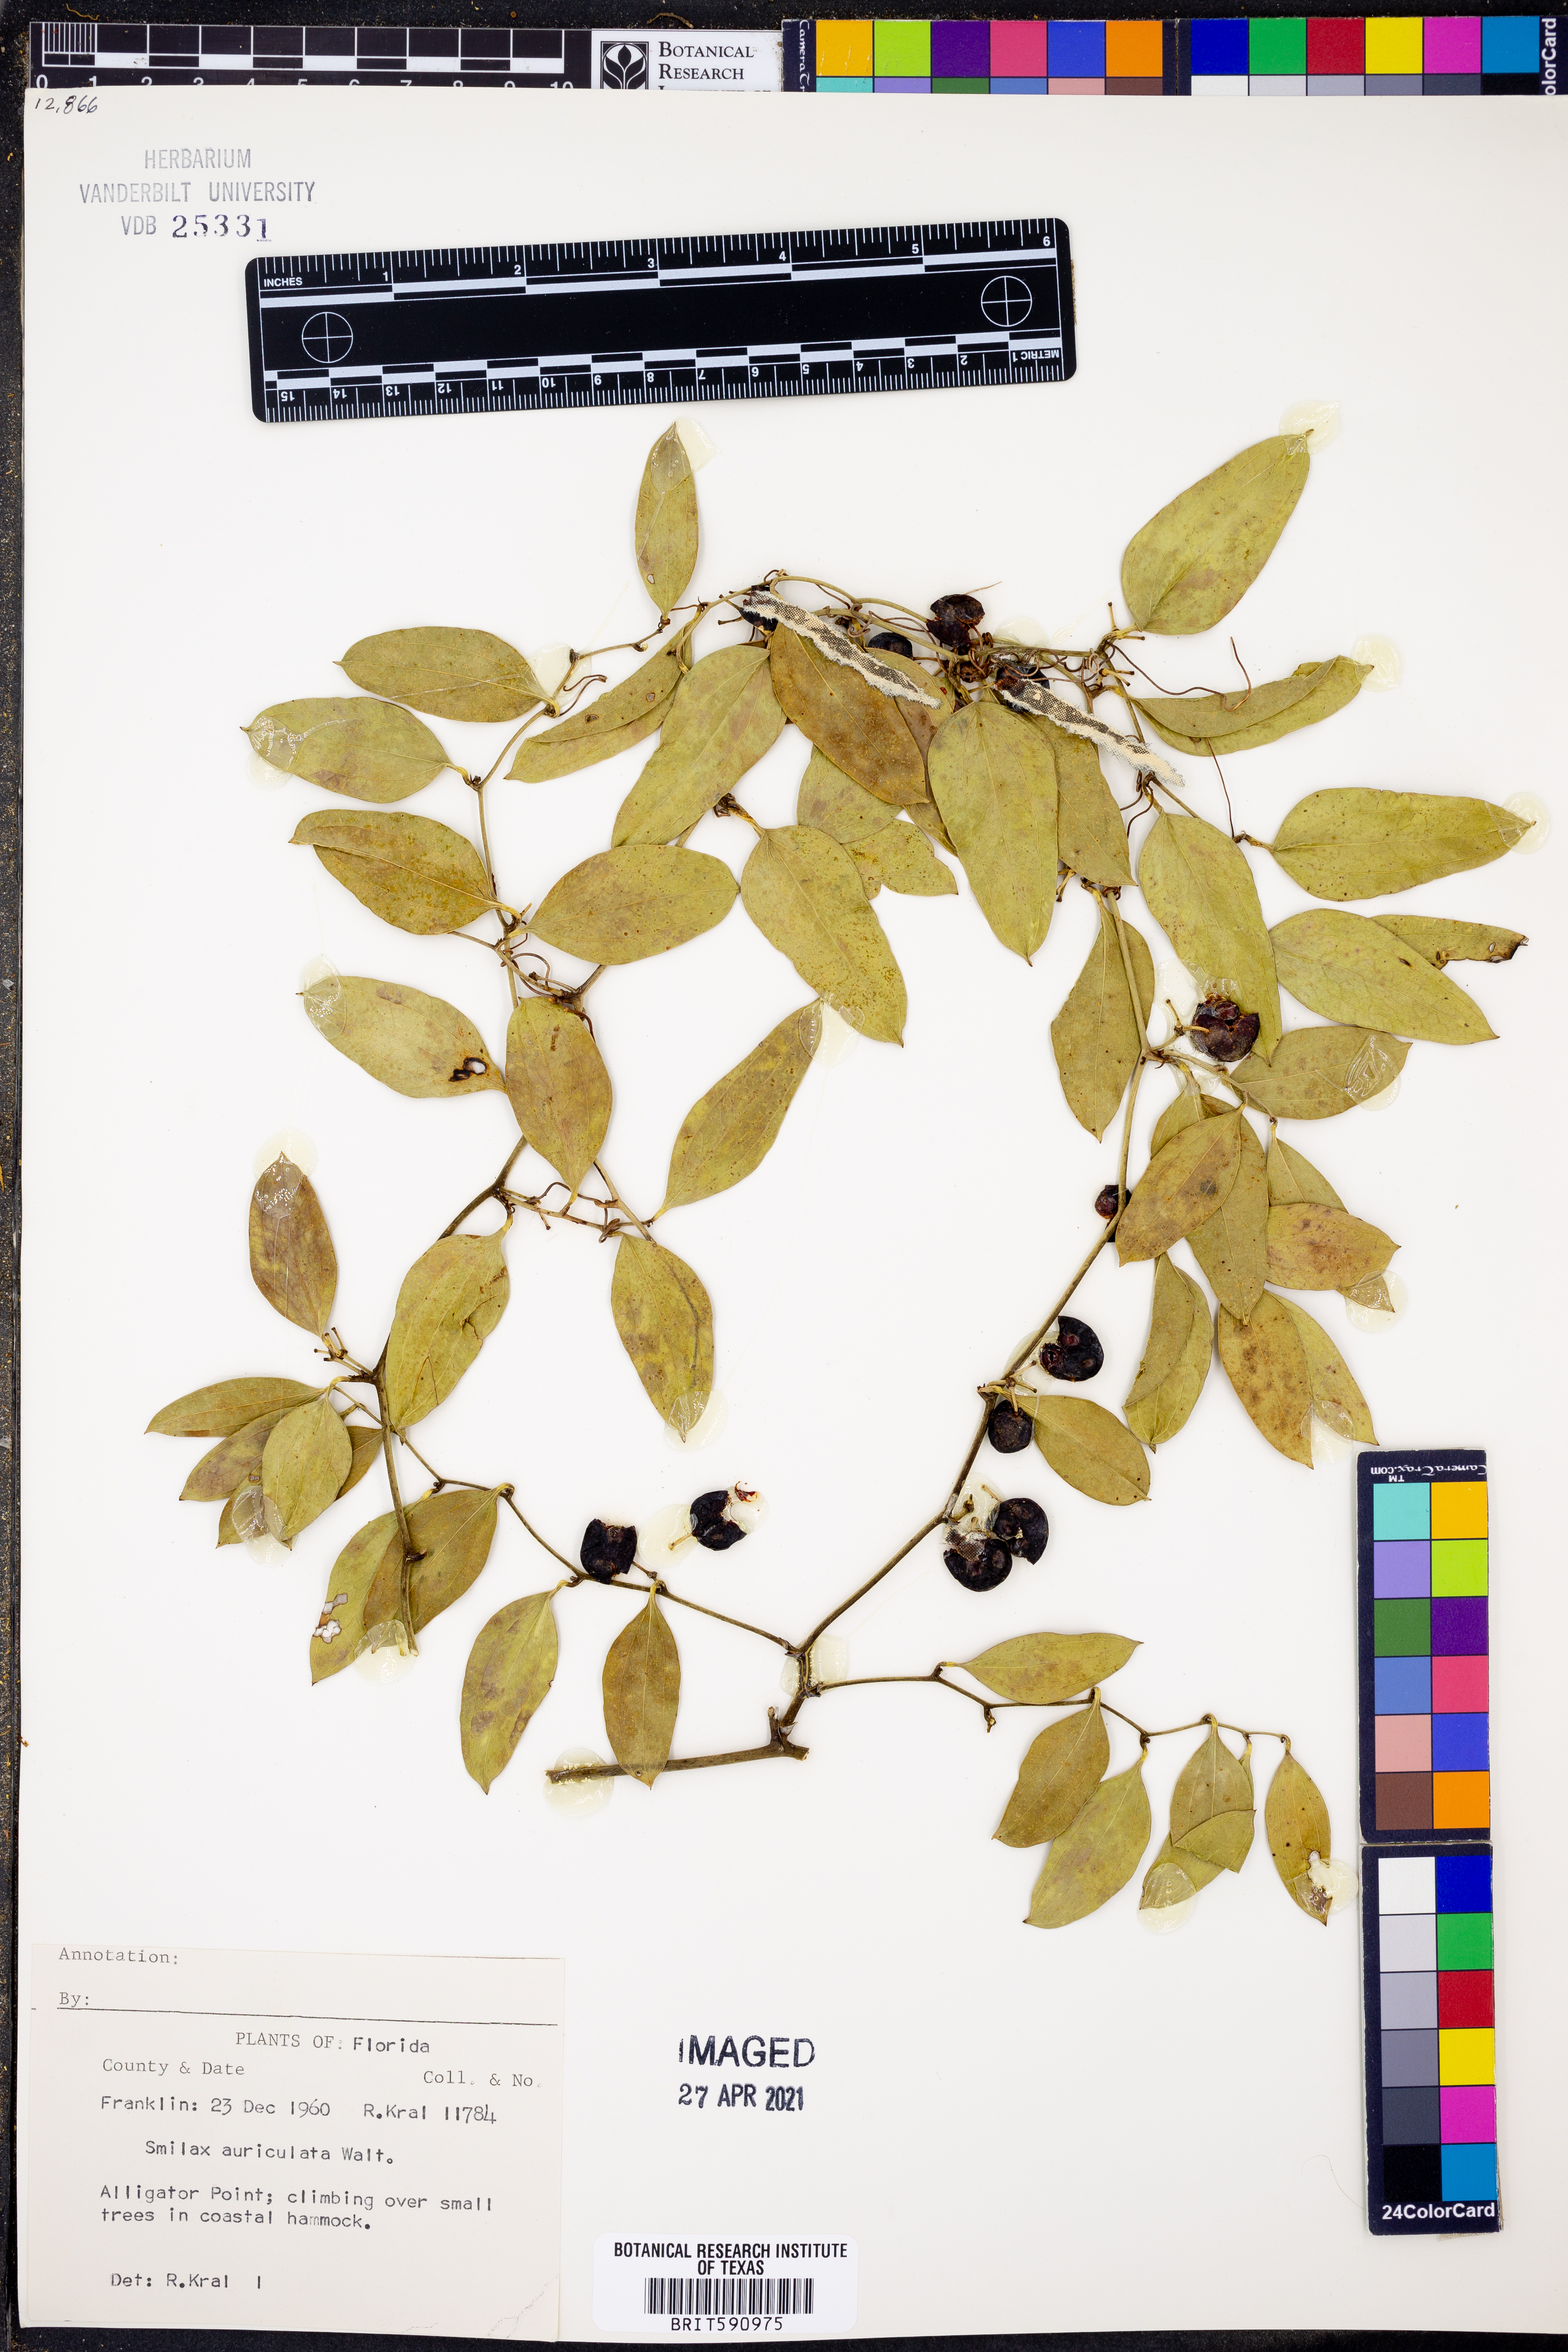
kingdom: Plantae
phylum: Tracheophyta
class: Liliopsida
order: Liliales
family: Smilacaceae
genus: Smilax
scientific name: Smilax auriculata
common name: Wild bamboo
